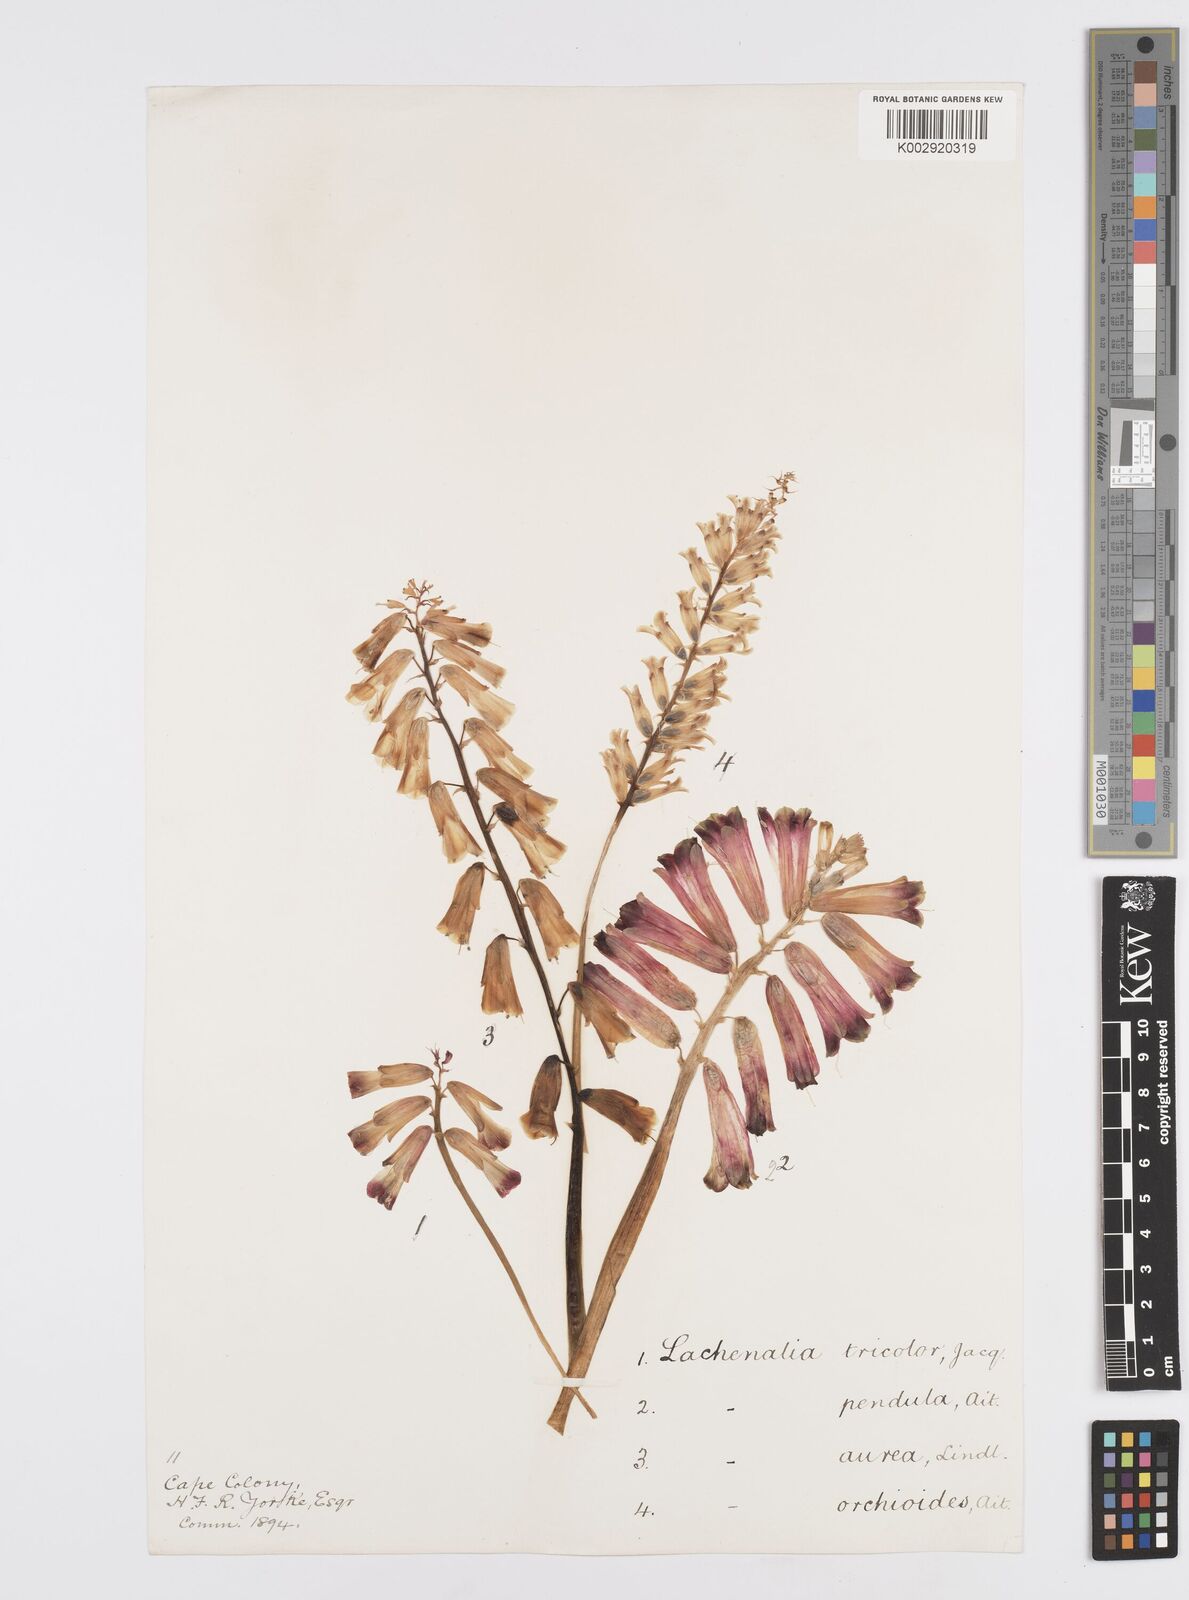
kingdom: Plantae
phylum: Tracheophyta
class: Liliopsida
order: Asparagales
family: Asparagaceae
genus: Lachenalia
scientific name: Lachenalia bulbifera
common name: Red lachenalia
